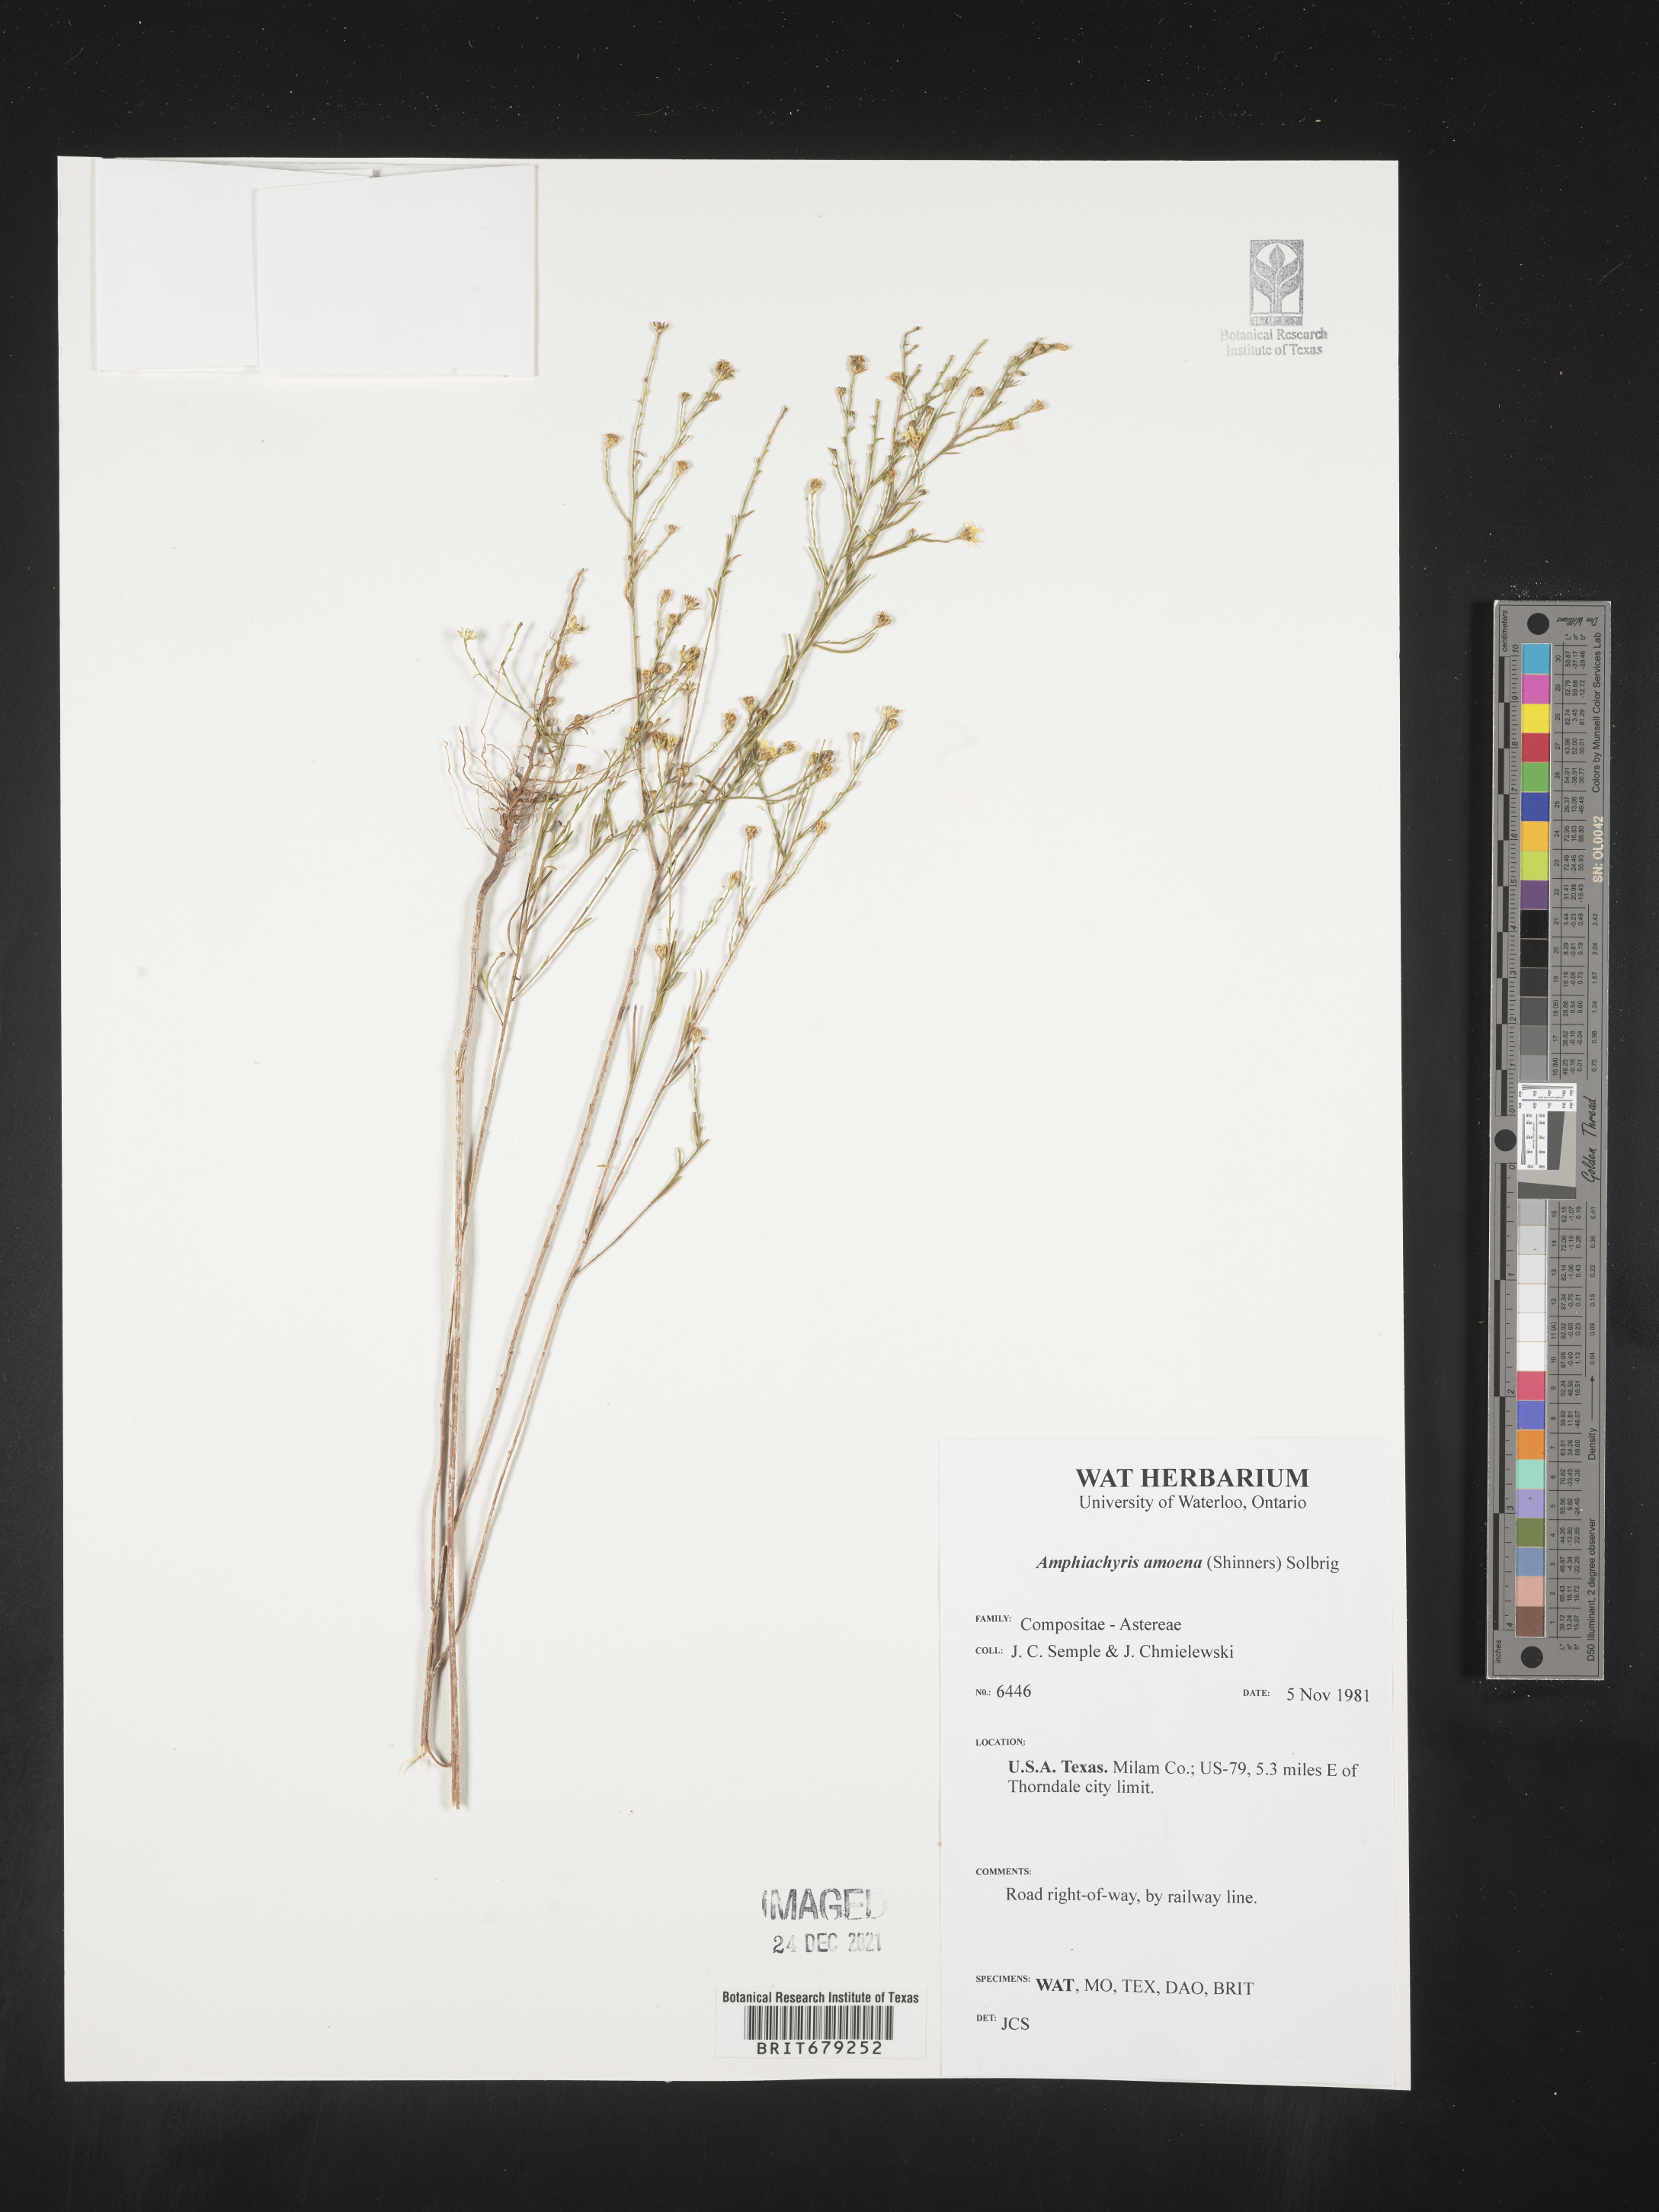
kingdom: Plantae
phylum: Tracheophyta
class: Magnoliopsida
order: Asterales
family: Asteraceae
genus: Amphiachyris
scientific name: Amphiachyris amoenum
